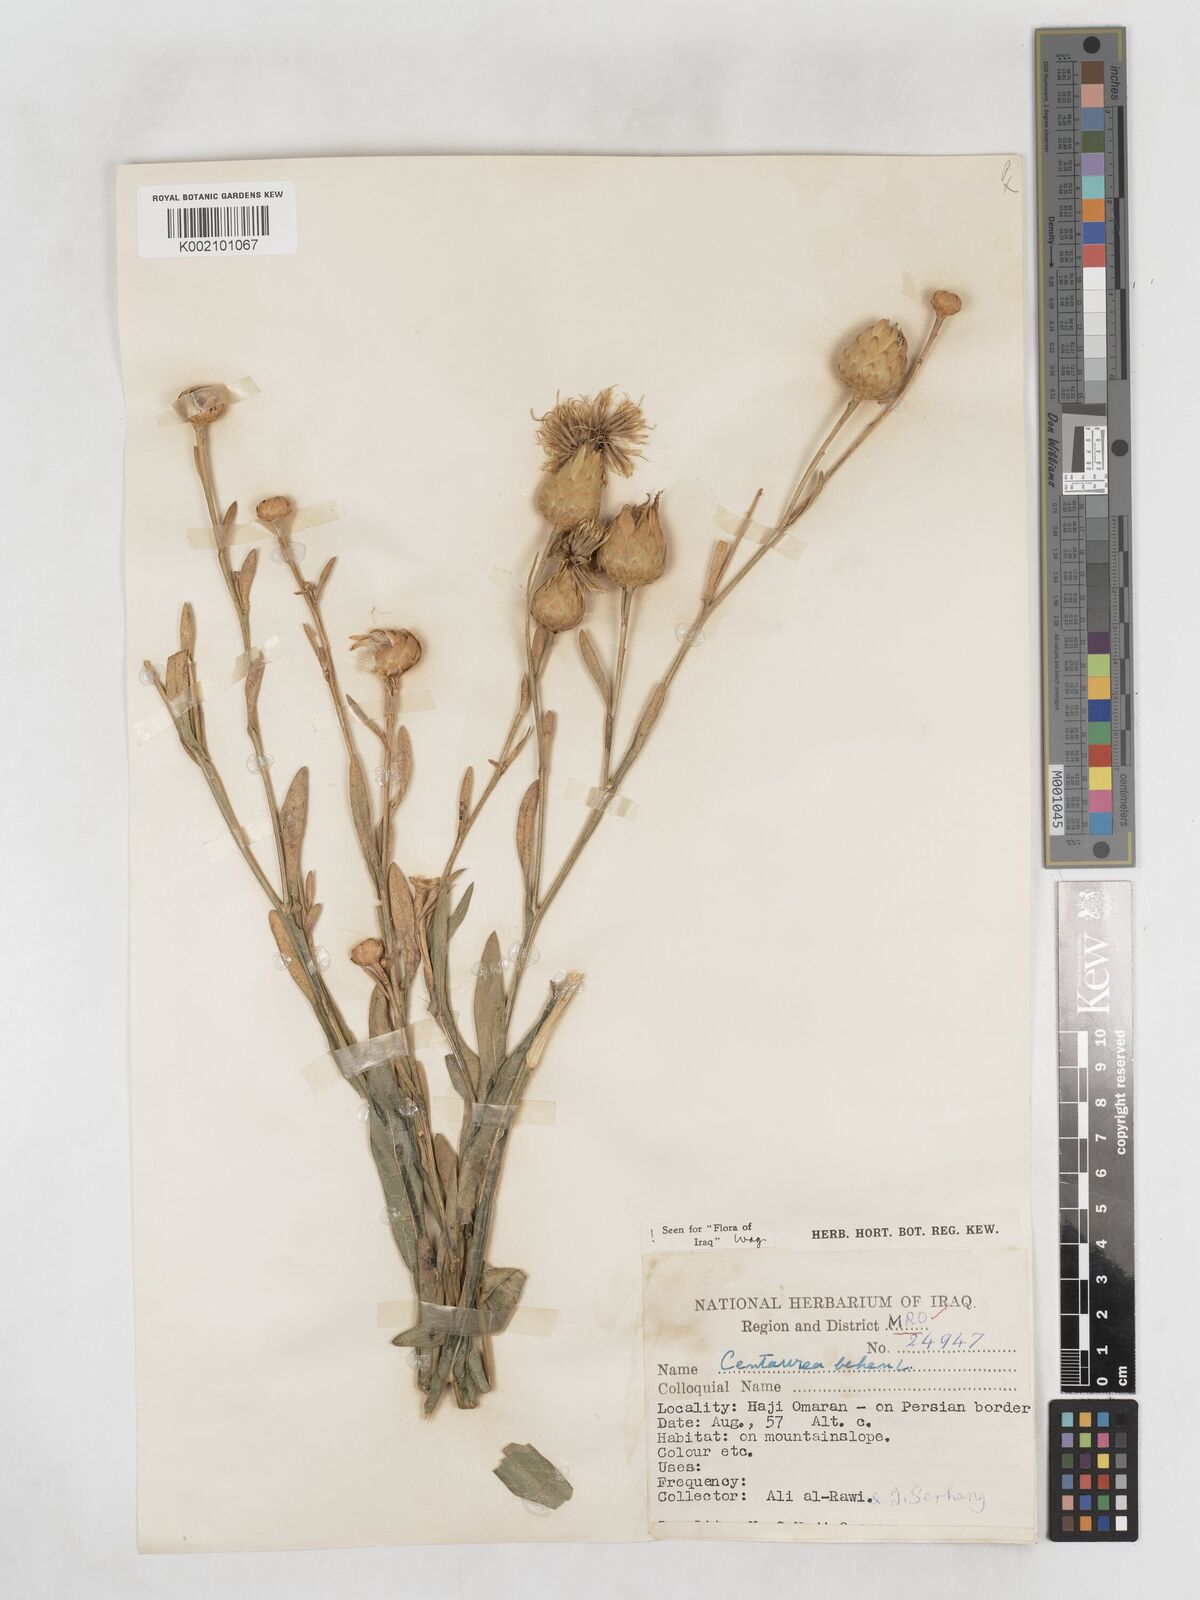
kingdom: Plantae
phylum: Tracheophyta
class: Magnoliopsida
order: Asterales
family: Asteraceae
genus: Centaurea
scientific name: Centaurea behen
